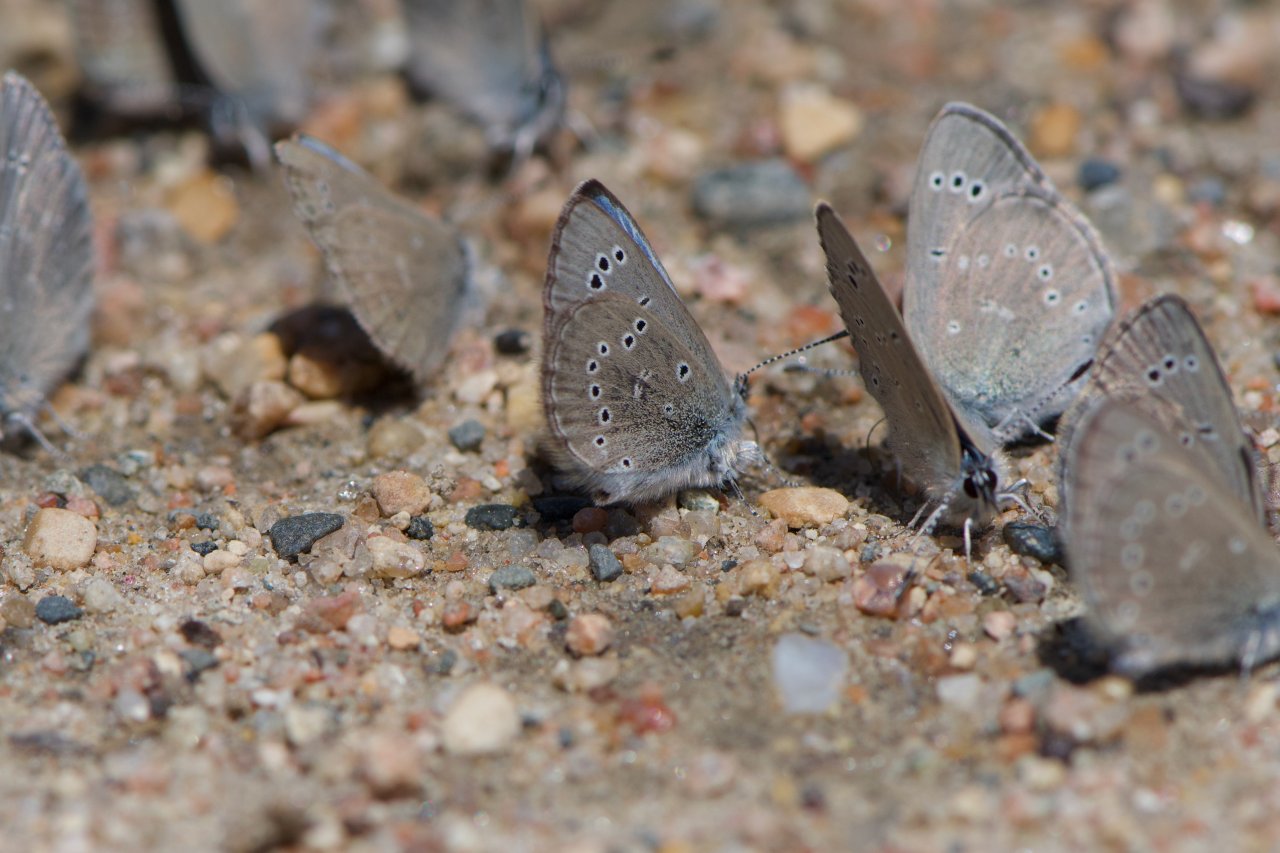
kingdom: Animalia
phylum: Arthropoda
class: Insecta
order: Lepidoptera
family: Lycaenidae
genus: Glaucopsyche
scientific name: Glaucopsyche lygdamus
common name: Silvery Blue
